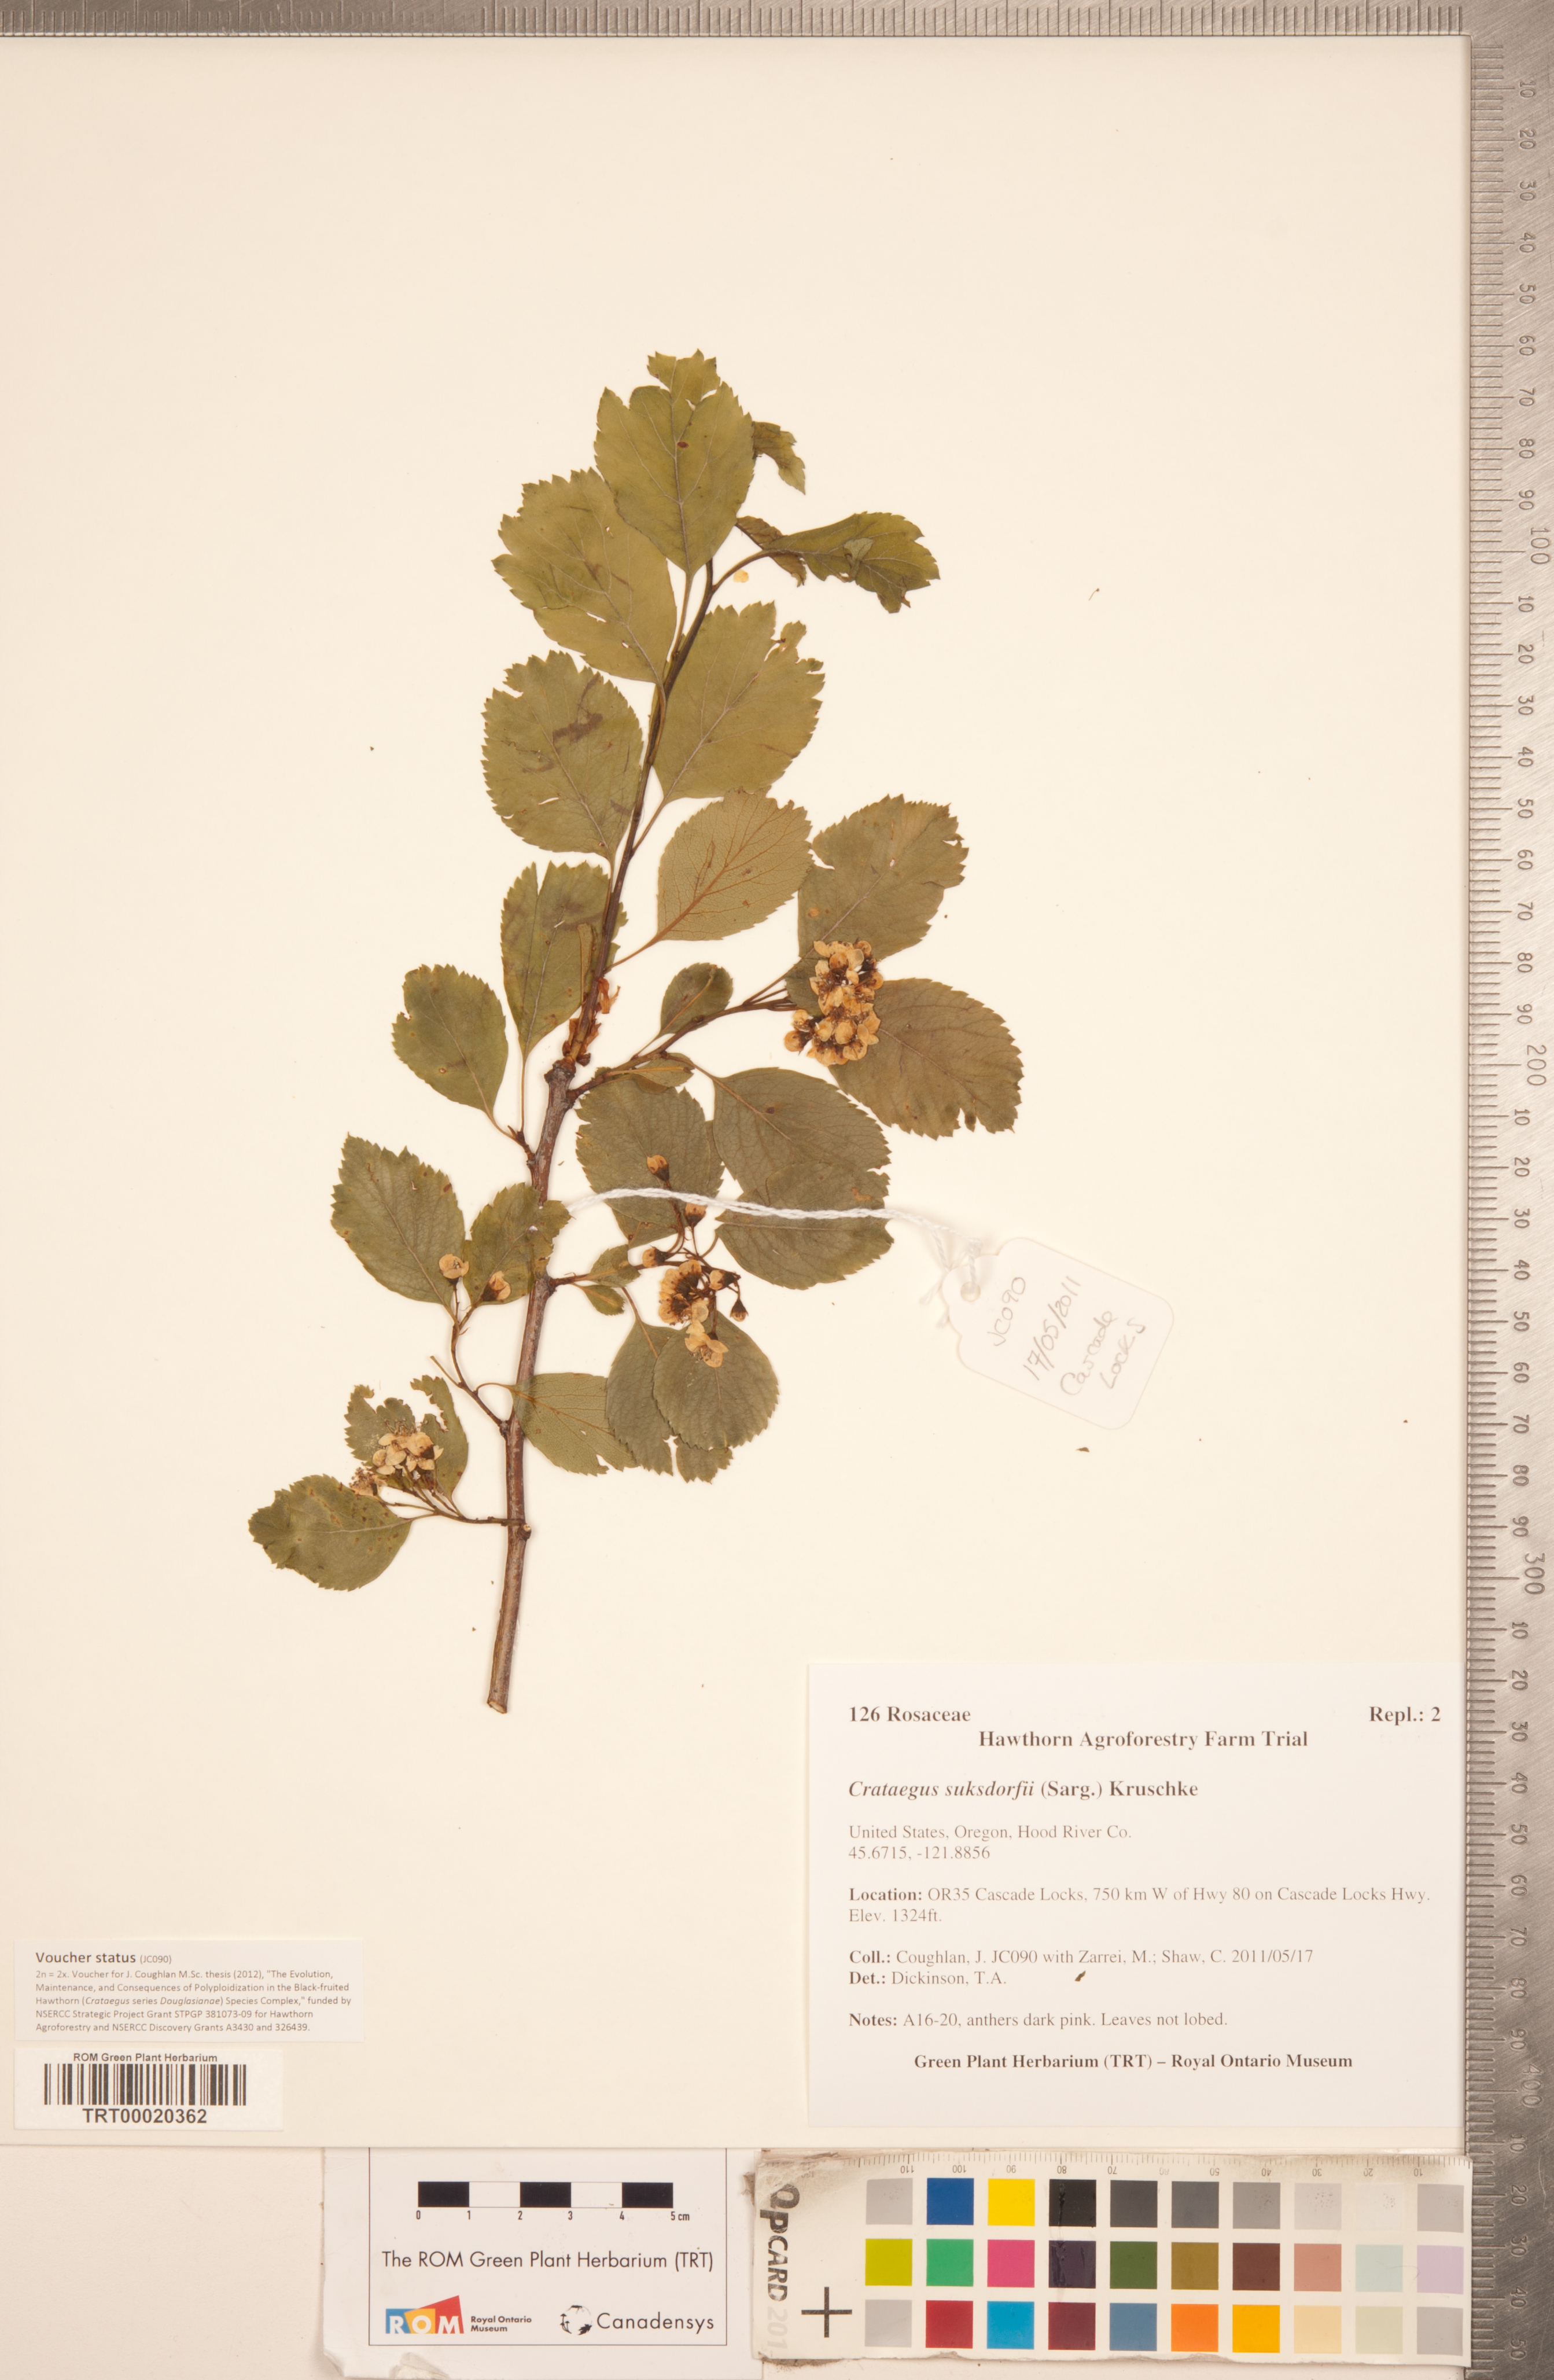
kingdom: Plantae
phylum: Tracheophyta
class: Magnoliopsida
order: Rosales
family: Rosaceae
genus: Crataegus
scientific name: Crataegus gaylussacia
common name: Huckleberry hawthorn
